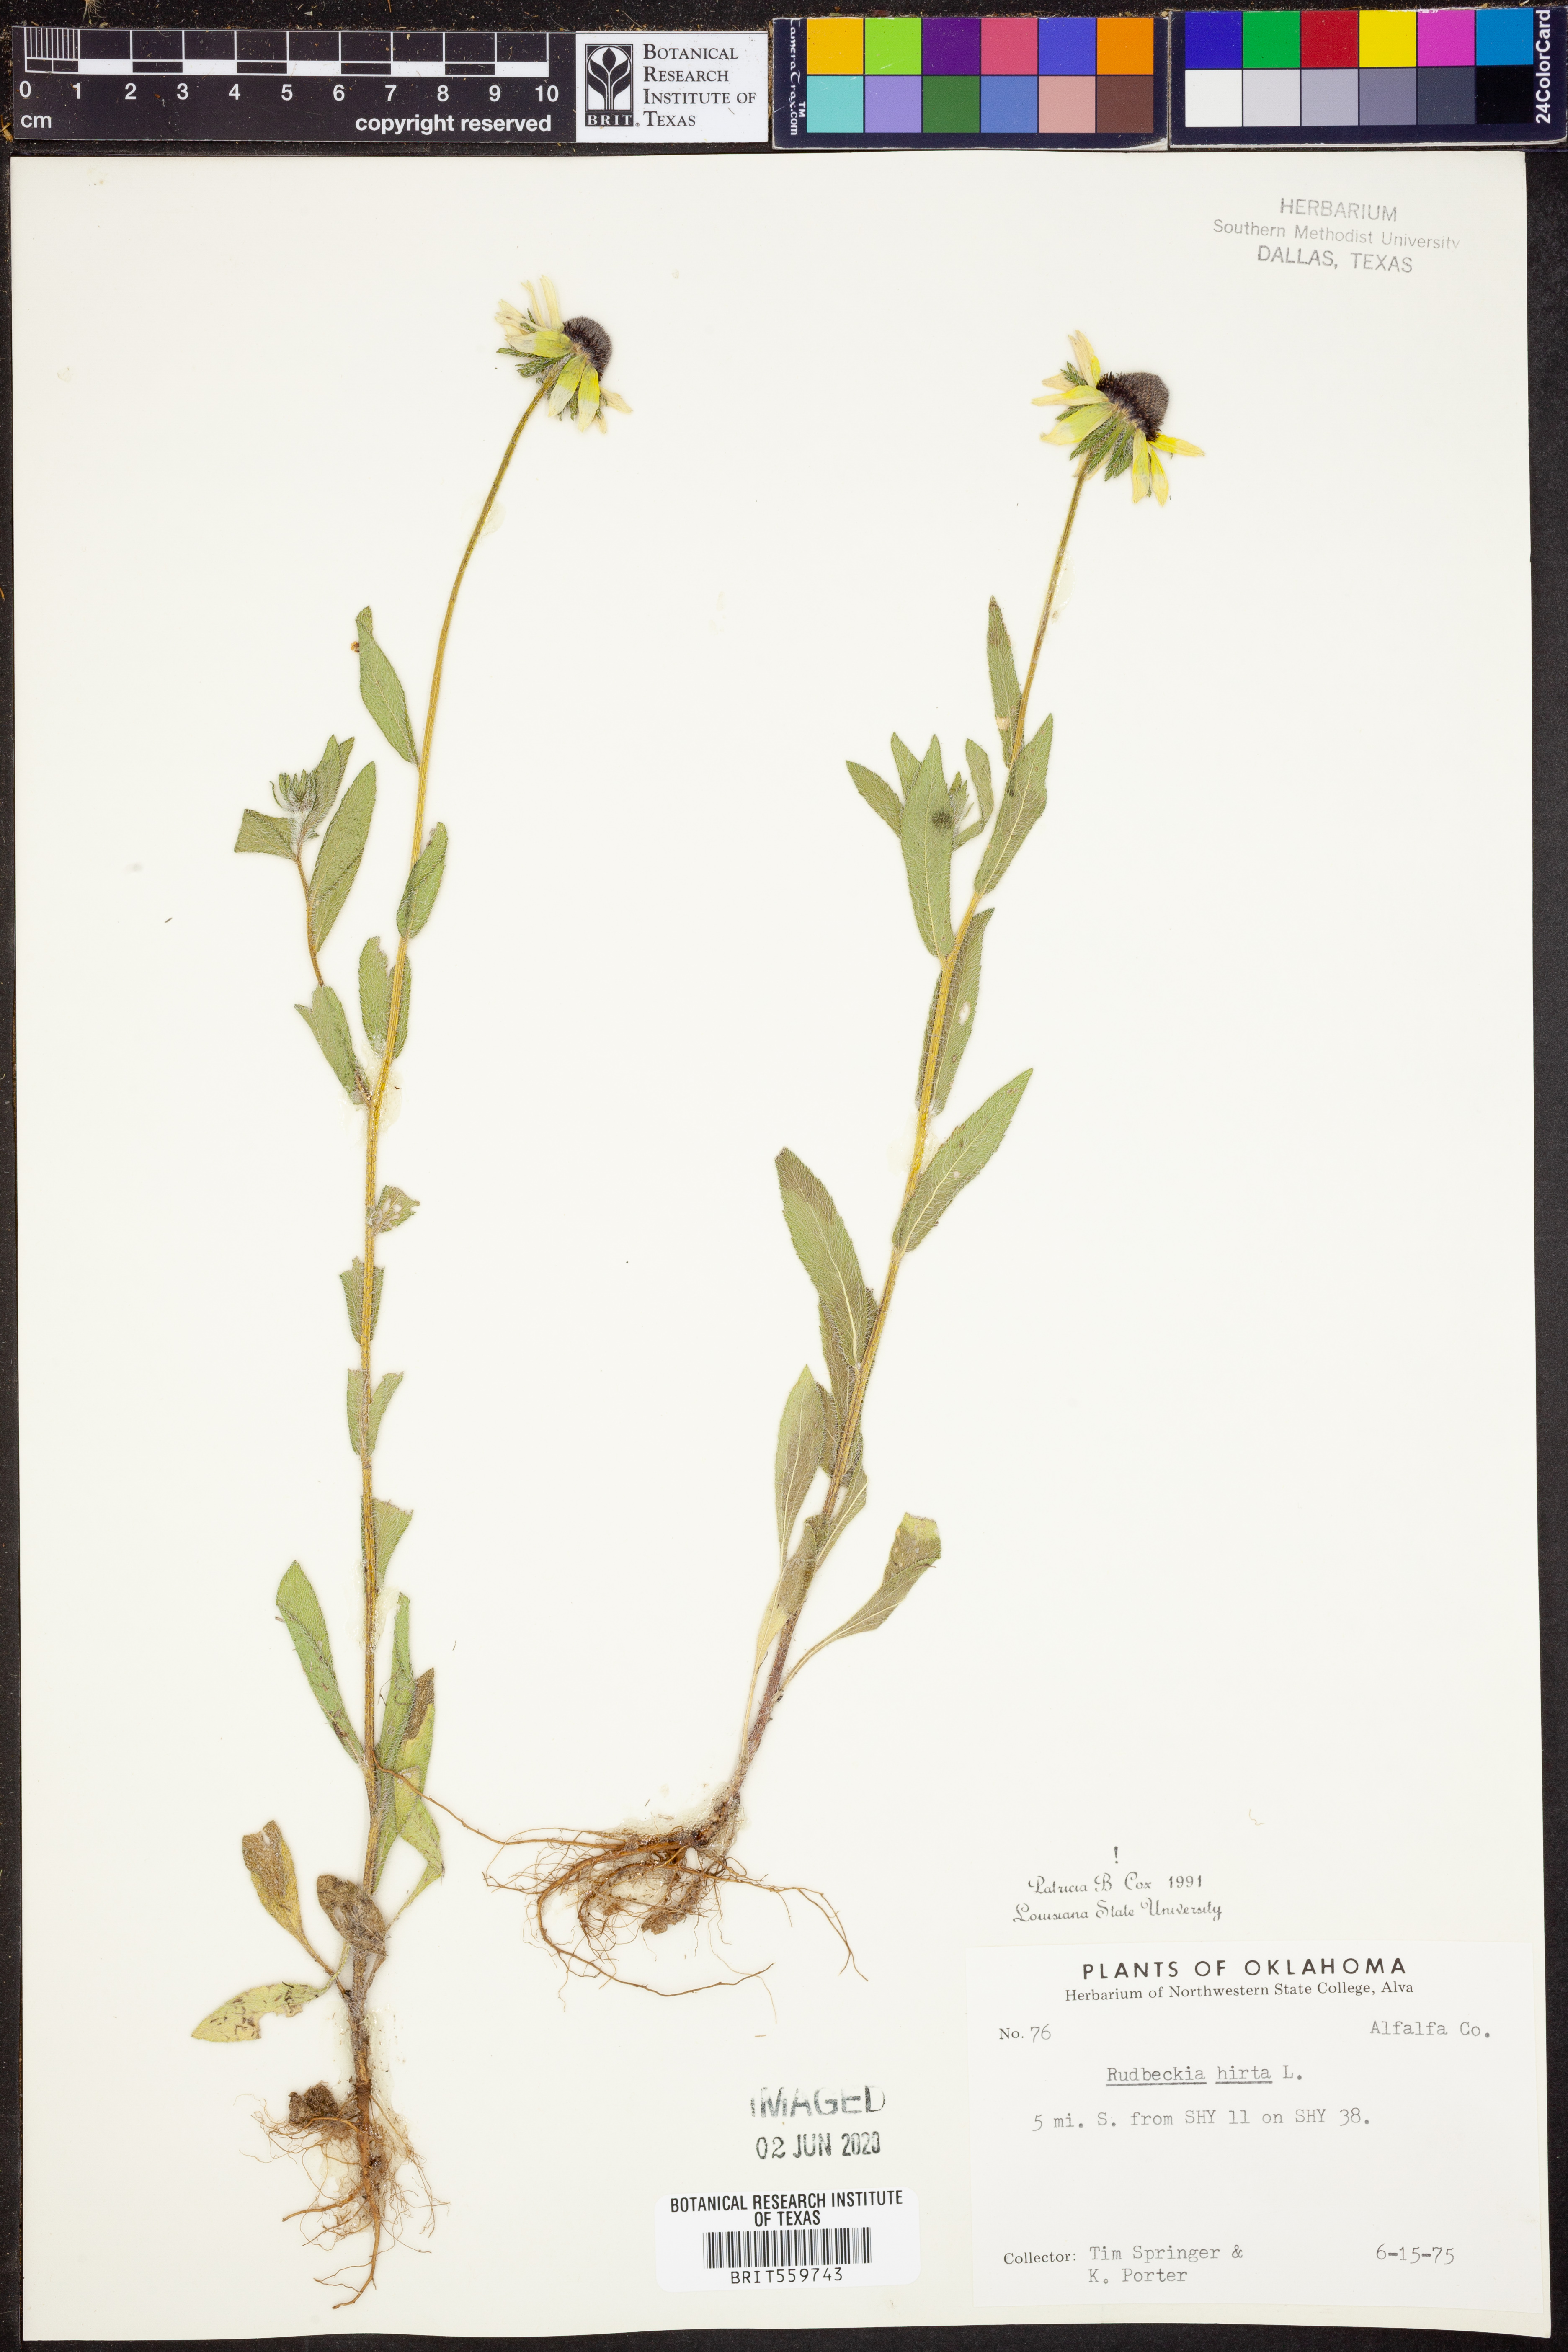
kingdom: Plantae
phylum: Tracheophyta
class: Magnoliopsida
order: Asterales
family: Asteraceae
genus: Rudbeckia
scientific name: Rudbeckia hirta
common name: Black-eyed-susan
